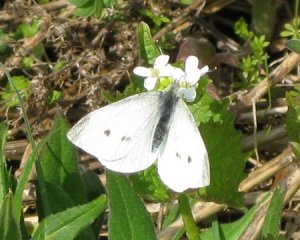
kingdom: Animalia
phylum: Arthropoda
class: Insecta
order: Lepidoptera
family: Pieridae
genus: Pieris
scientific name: Pieris rapae
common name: Cabbage White
